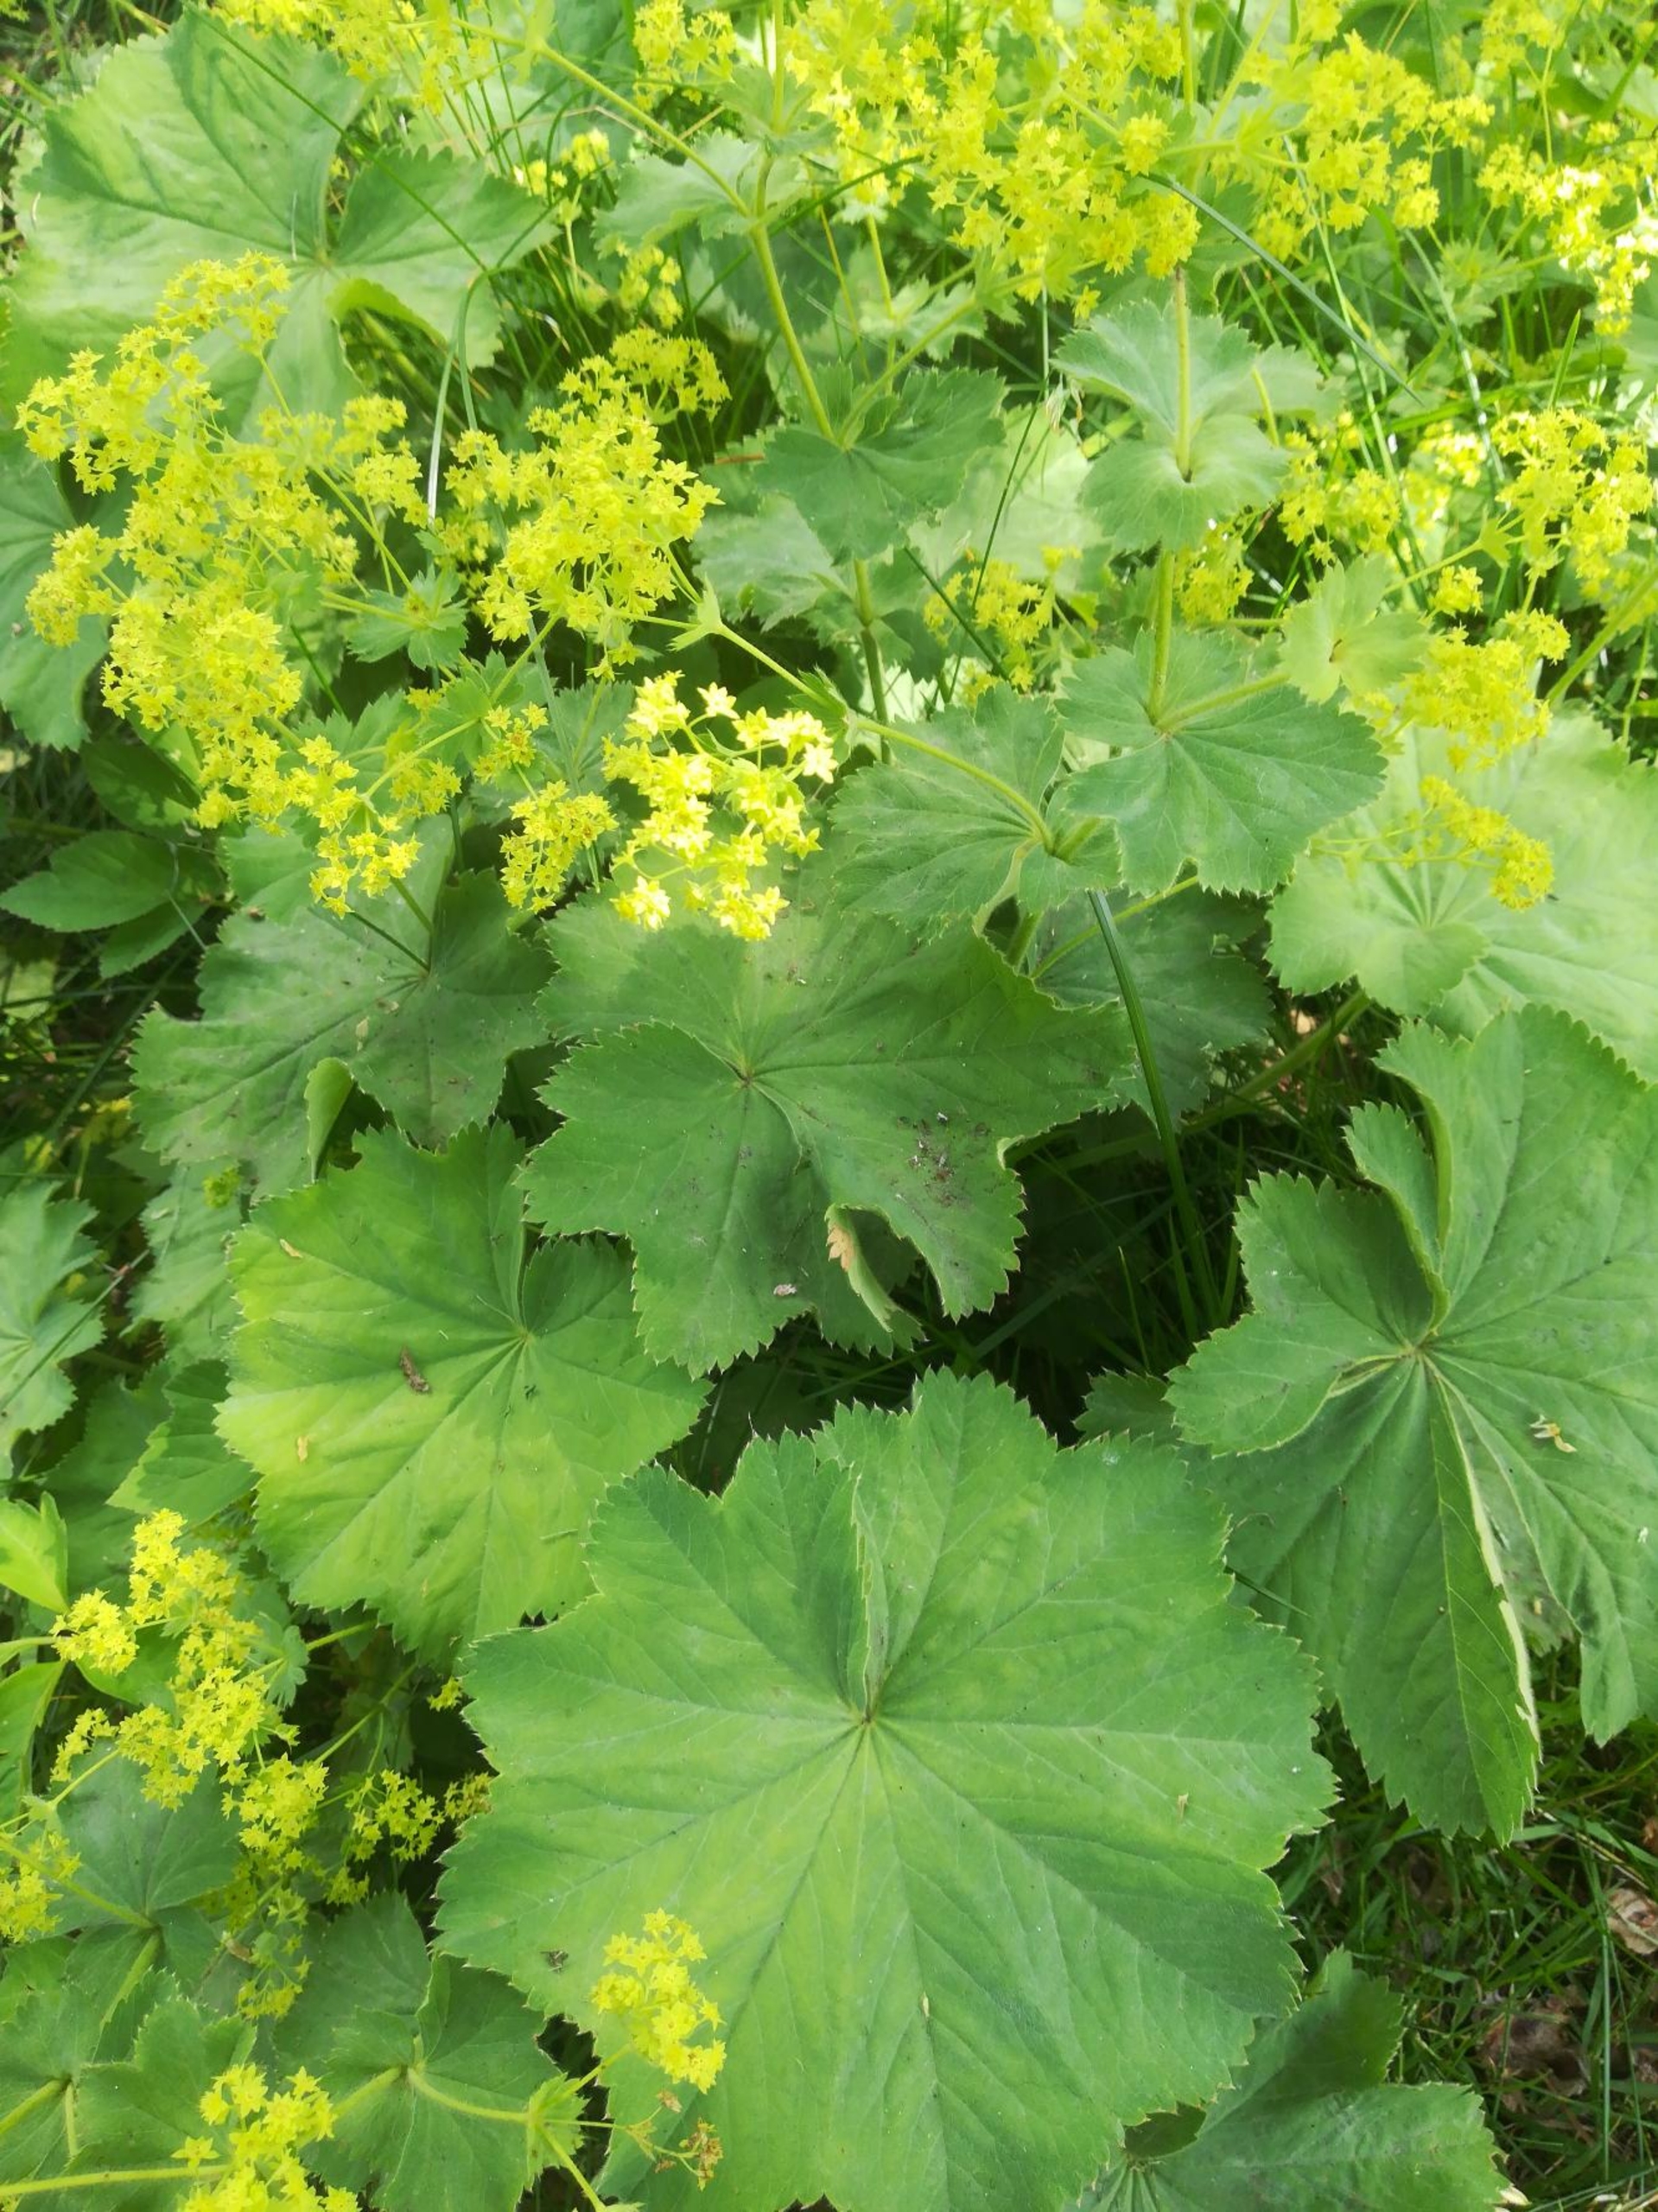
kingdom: Plantae
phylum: Tracheophyta
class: Magnoliopsida
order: Rosales
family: Rosaceae
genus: Alchemilla
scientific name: Alchemilla mollis
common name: Lådden løvefod
